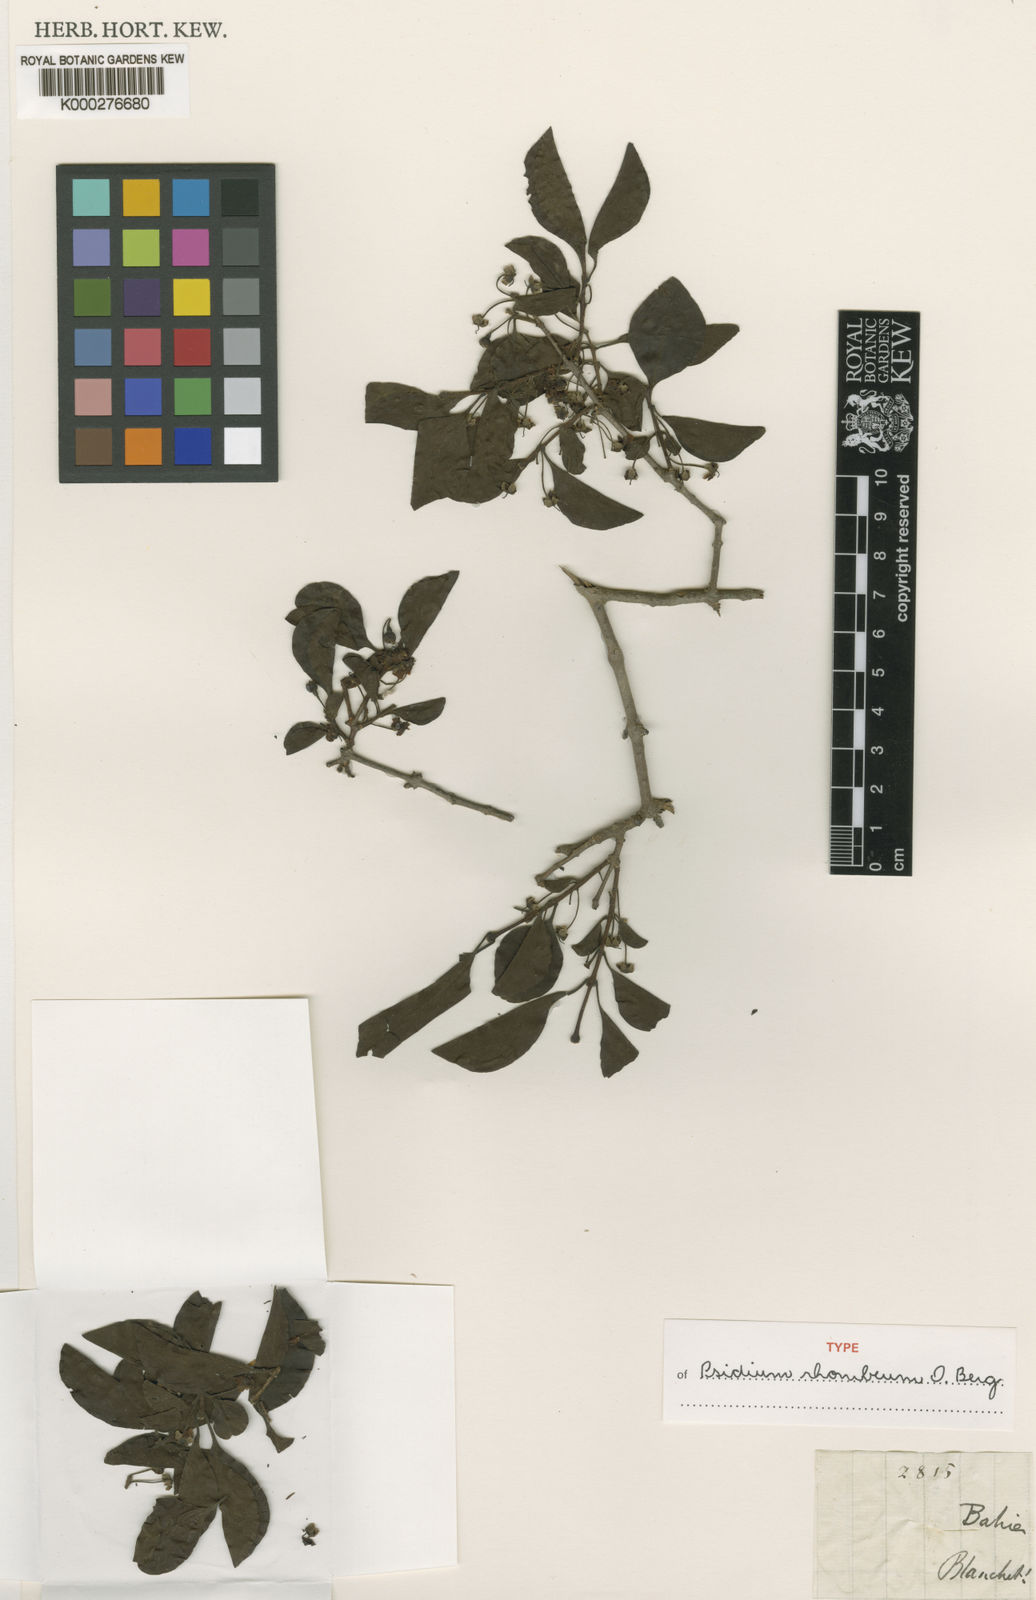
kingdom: Plantae
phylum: Tracheophyta
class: Magnoliopsida
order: Myrtales
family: Myrtaceae
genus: Psidium
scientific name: Psidium rhombeum
